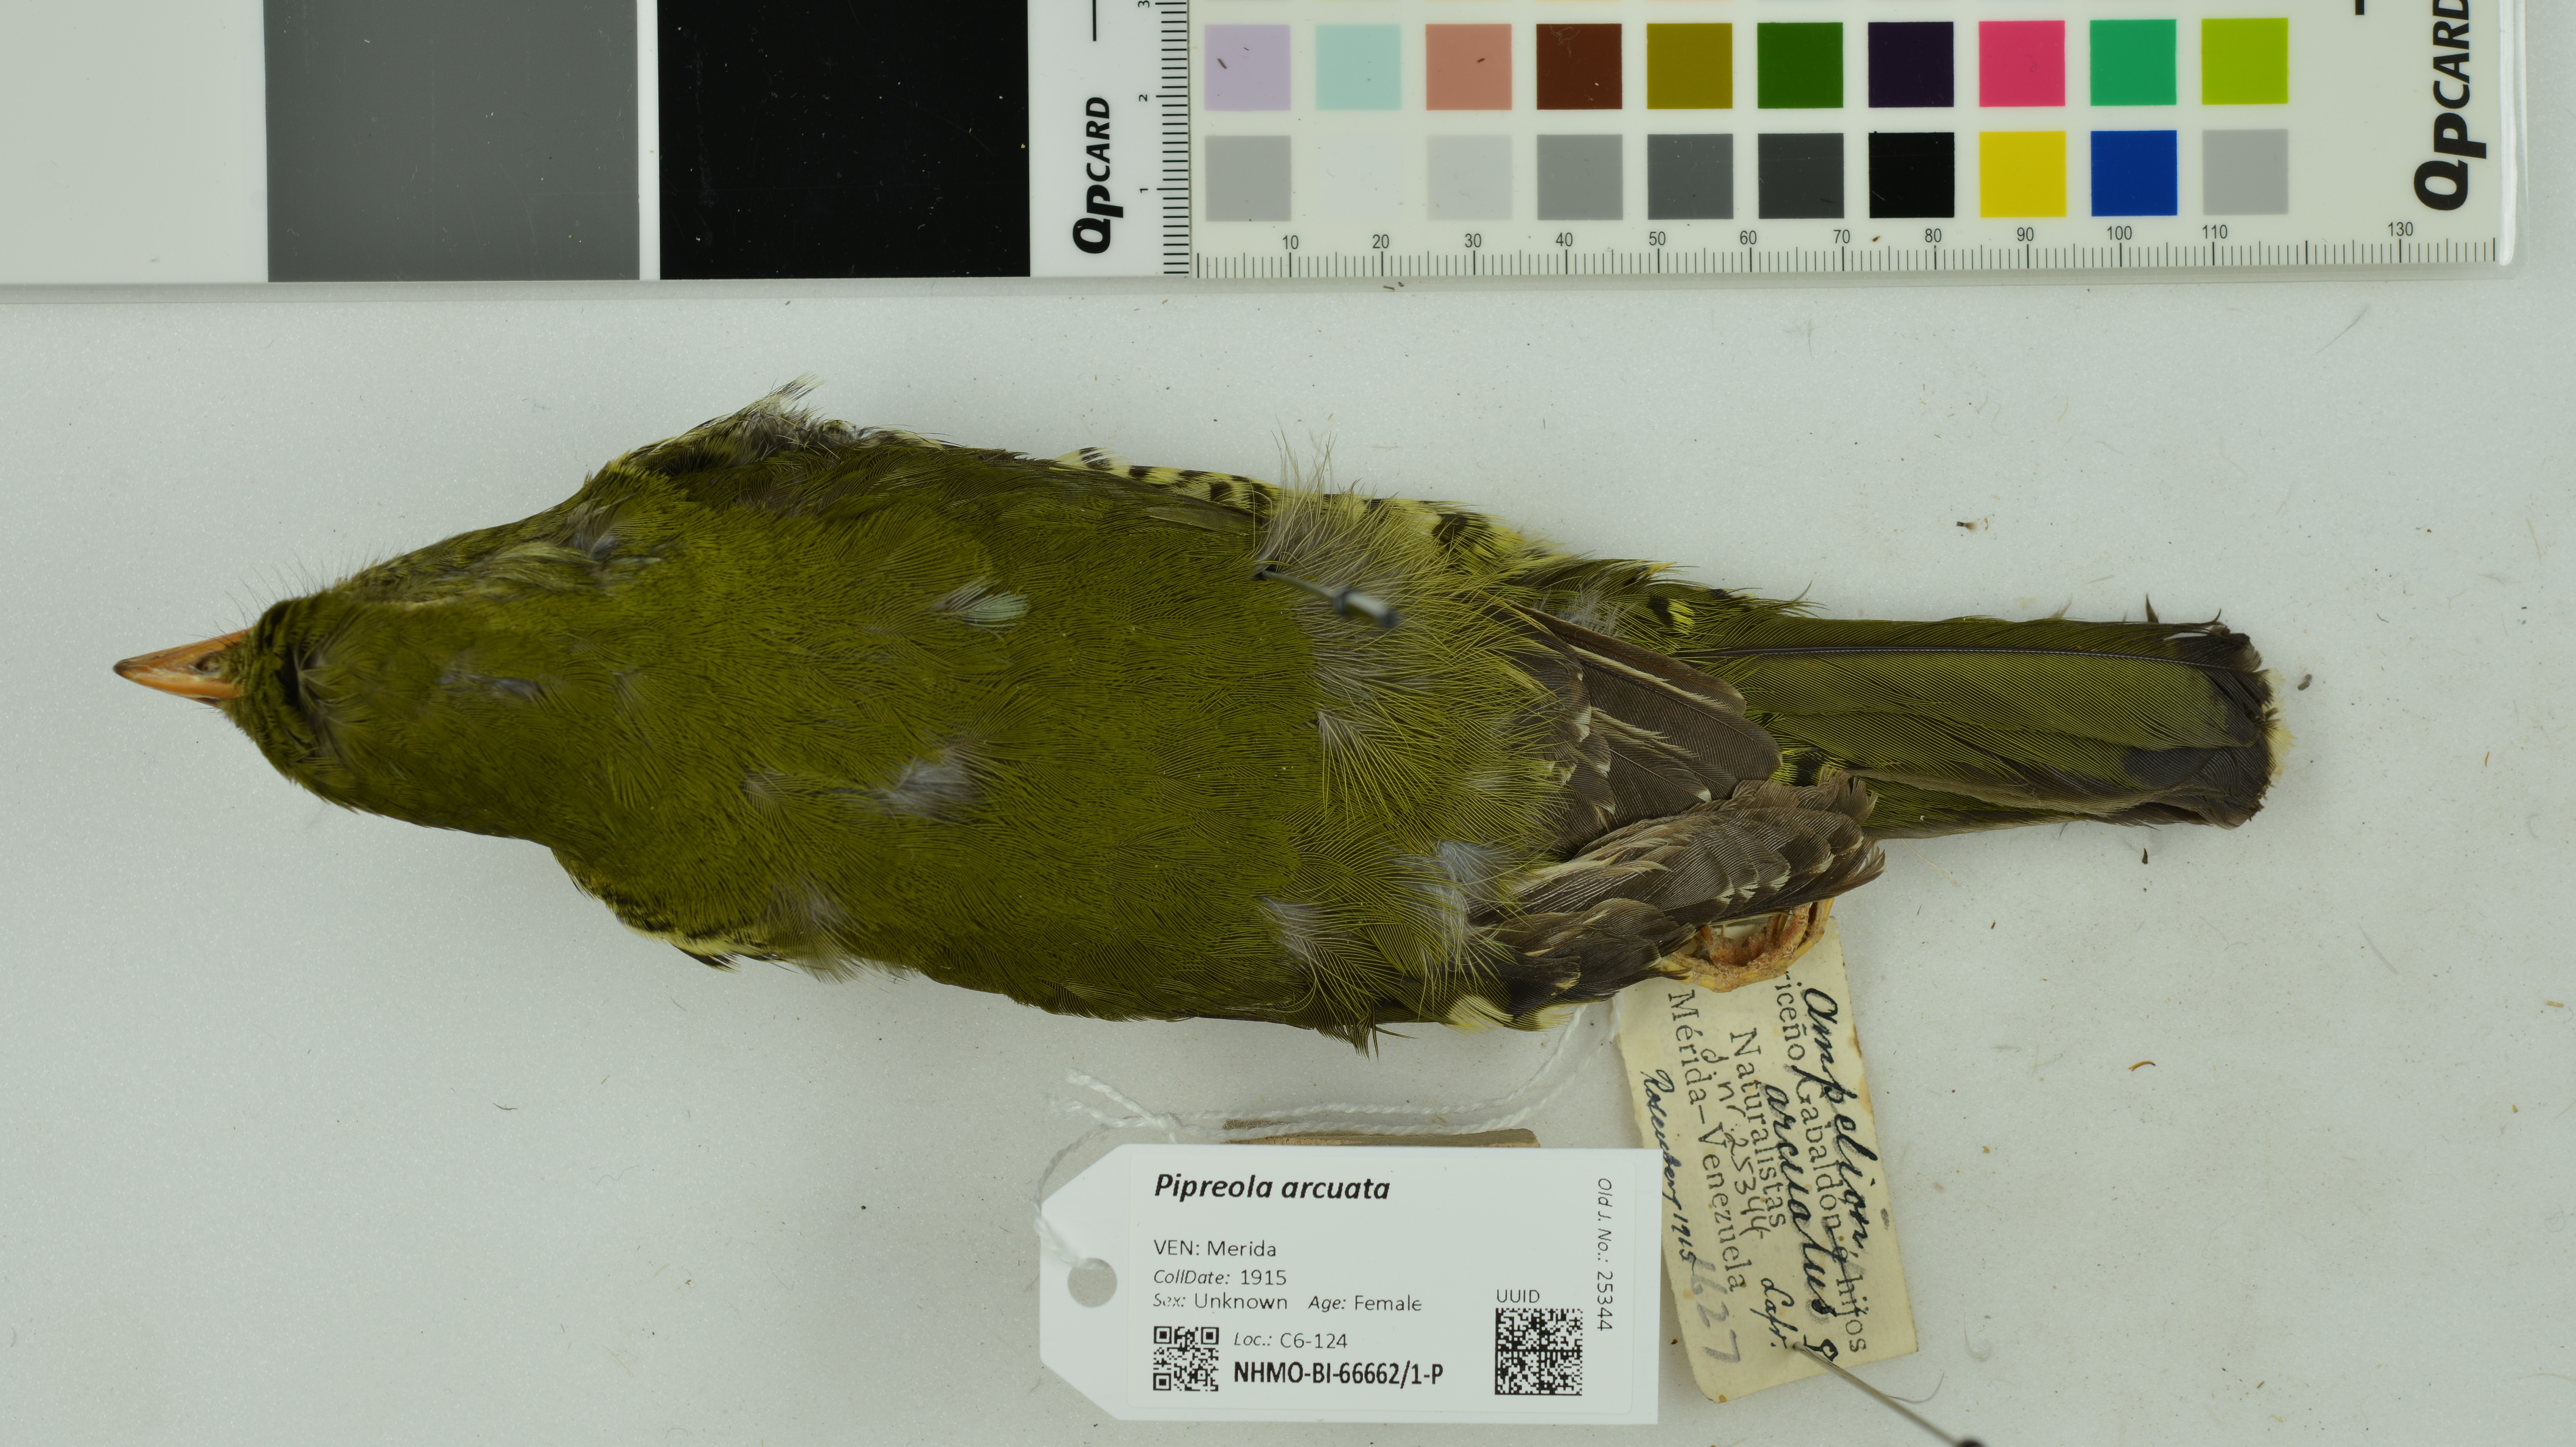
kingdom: Animalia
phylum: Chordata
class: Aves
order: Passeriformes
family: Cotingidae
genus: Pipreola
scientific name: Pipreola arcuata
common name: Barred fruiteater
